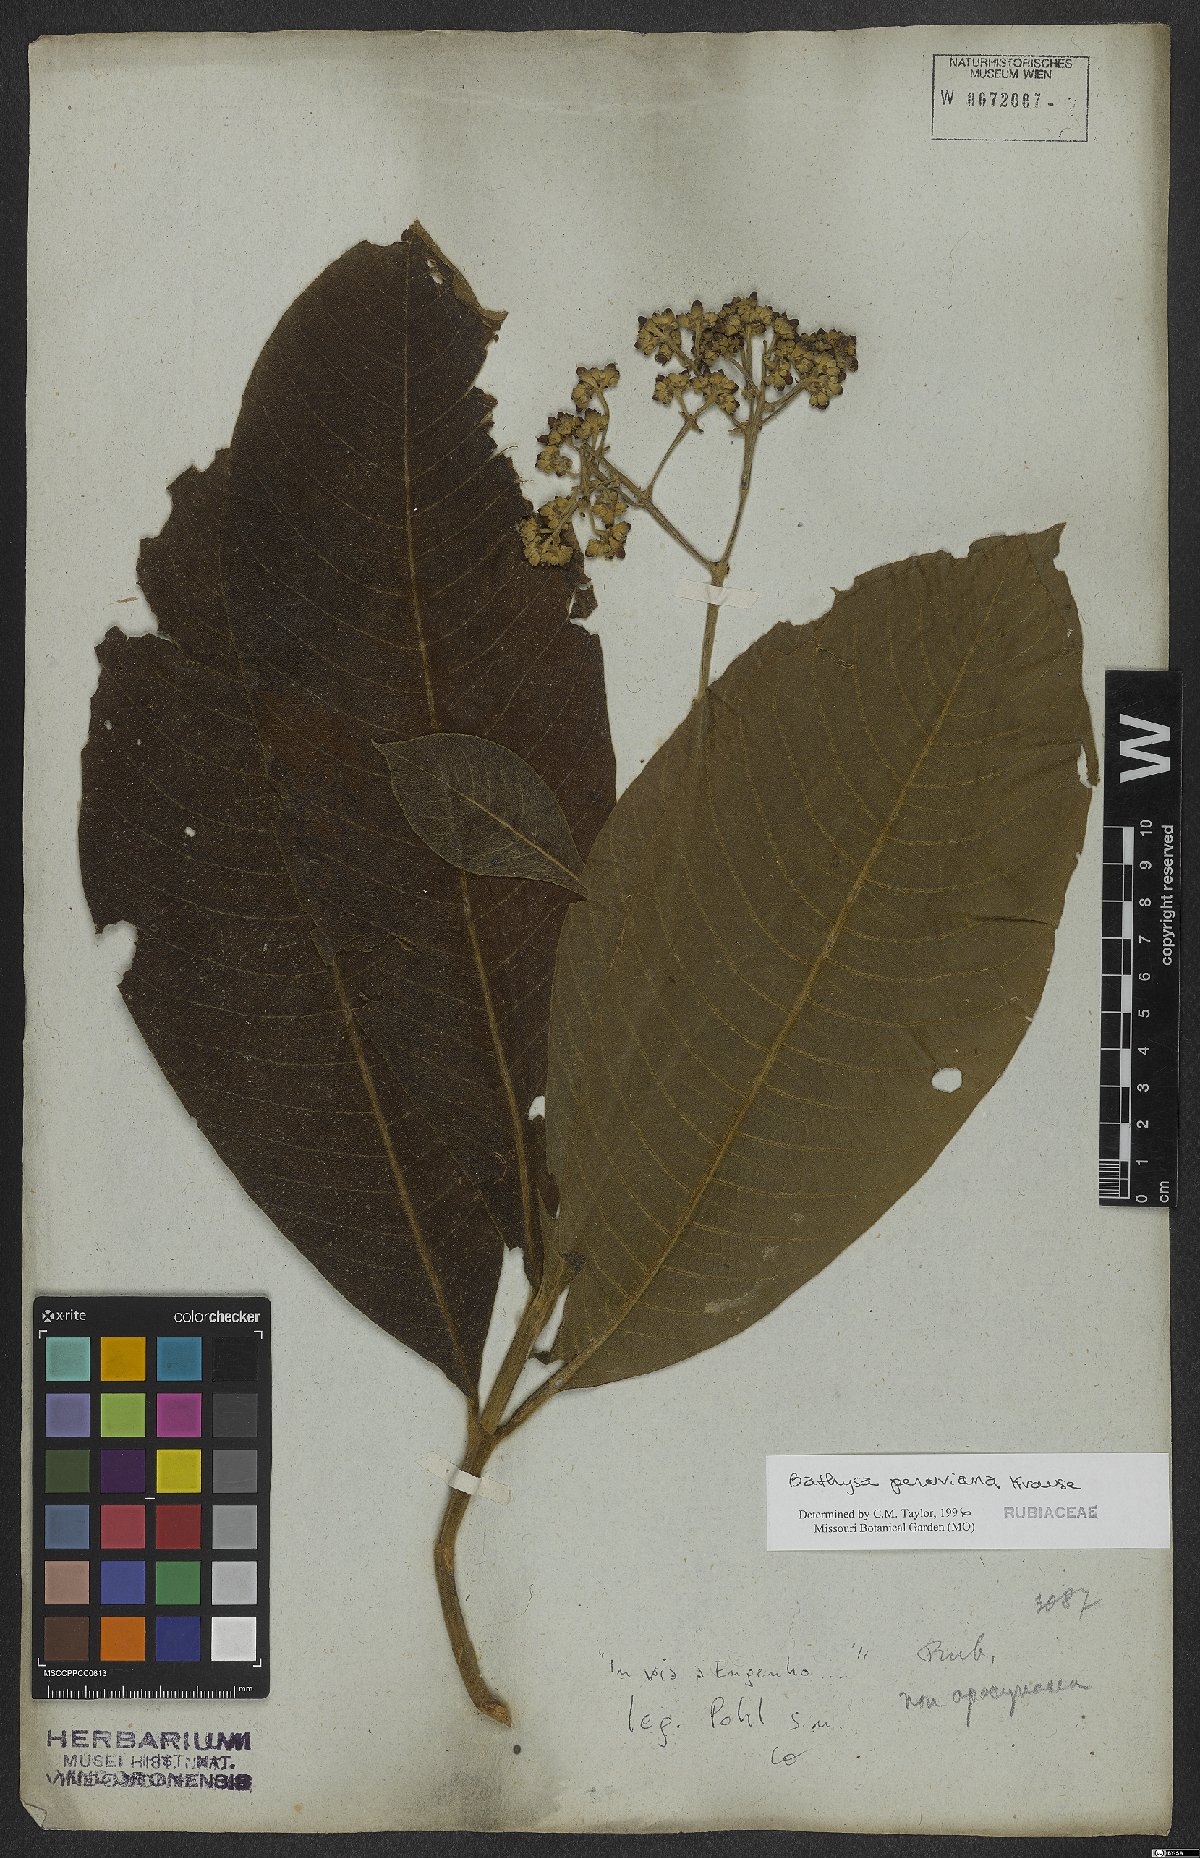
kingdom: Plantae
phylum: Tracheophyta
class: Magnoliopsida
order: Gentianales
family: Rubiaceae
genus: Schizocalyx
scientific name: Schizocalyx peruvianus
